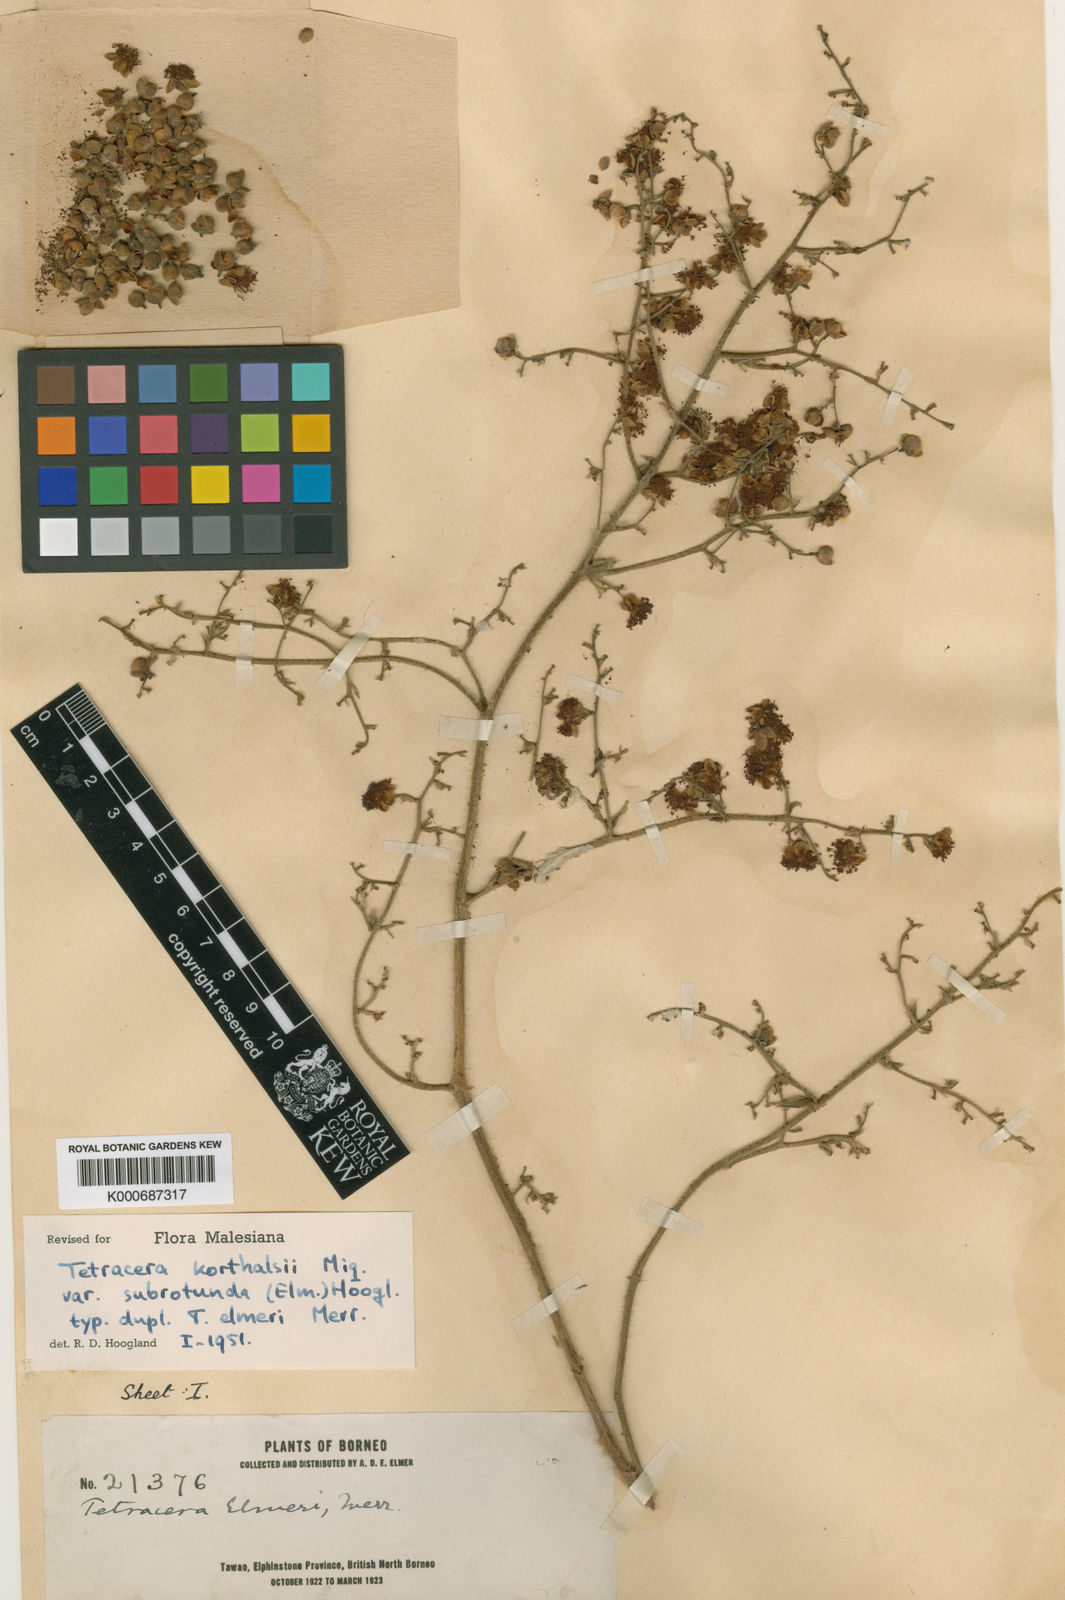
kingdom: Plantae
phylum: Tracheophyta
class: Magnoliopsida
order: Dilleniales
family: Dilleniaceae
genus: Tetracera
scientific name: Tetracera korthalsii
